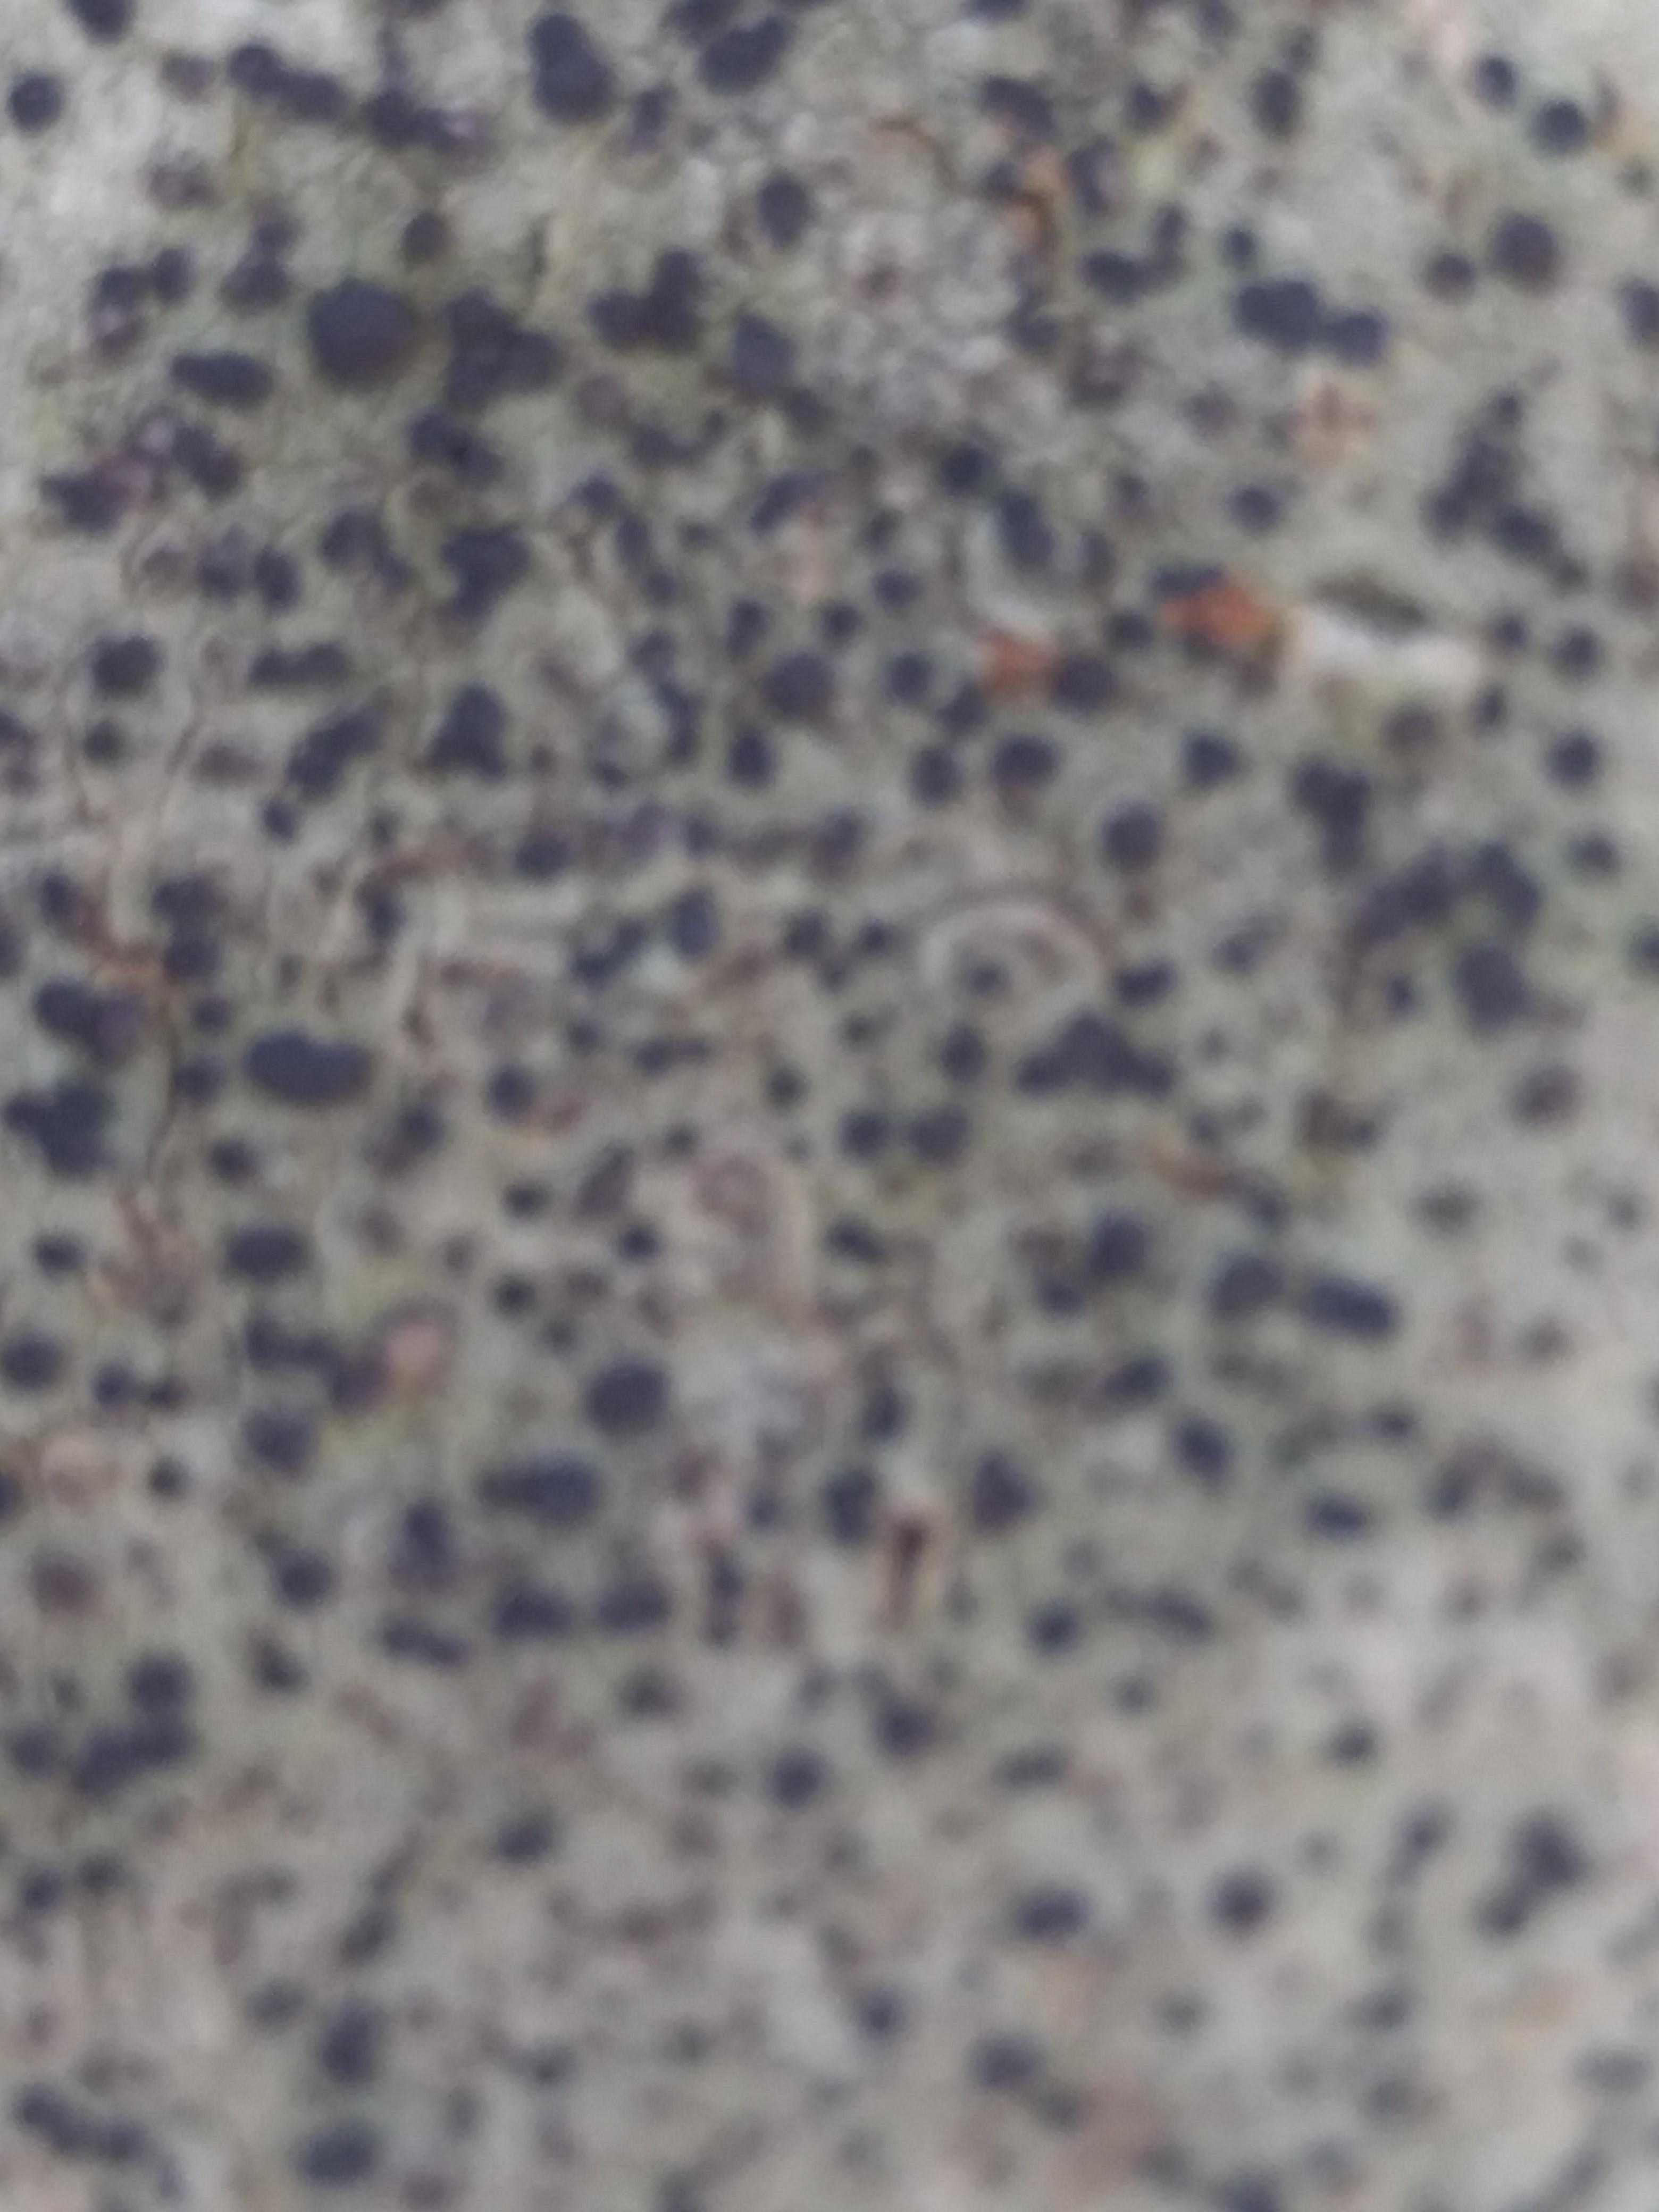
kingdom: Fungi
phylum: Ascomycota
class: Lecanoromycetes
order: Lecanorales
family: Lecanoraceae
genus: Lecidella
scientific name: Lecidella elaeochroma
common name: grågrøn skivelav
